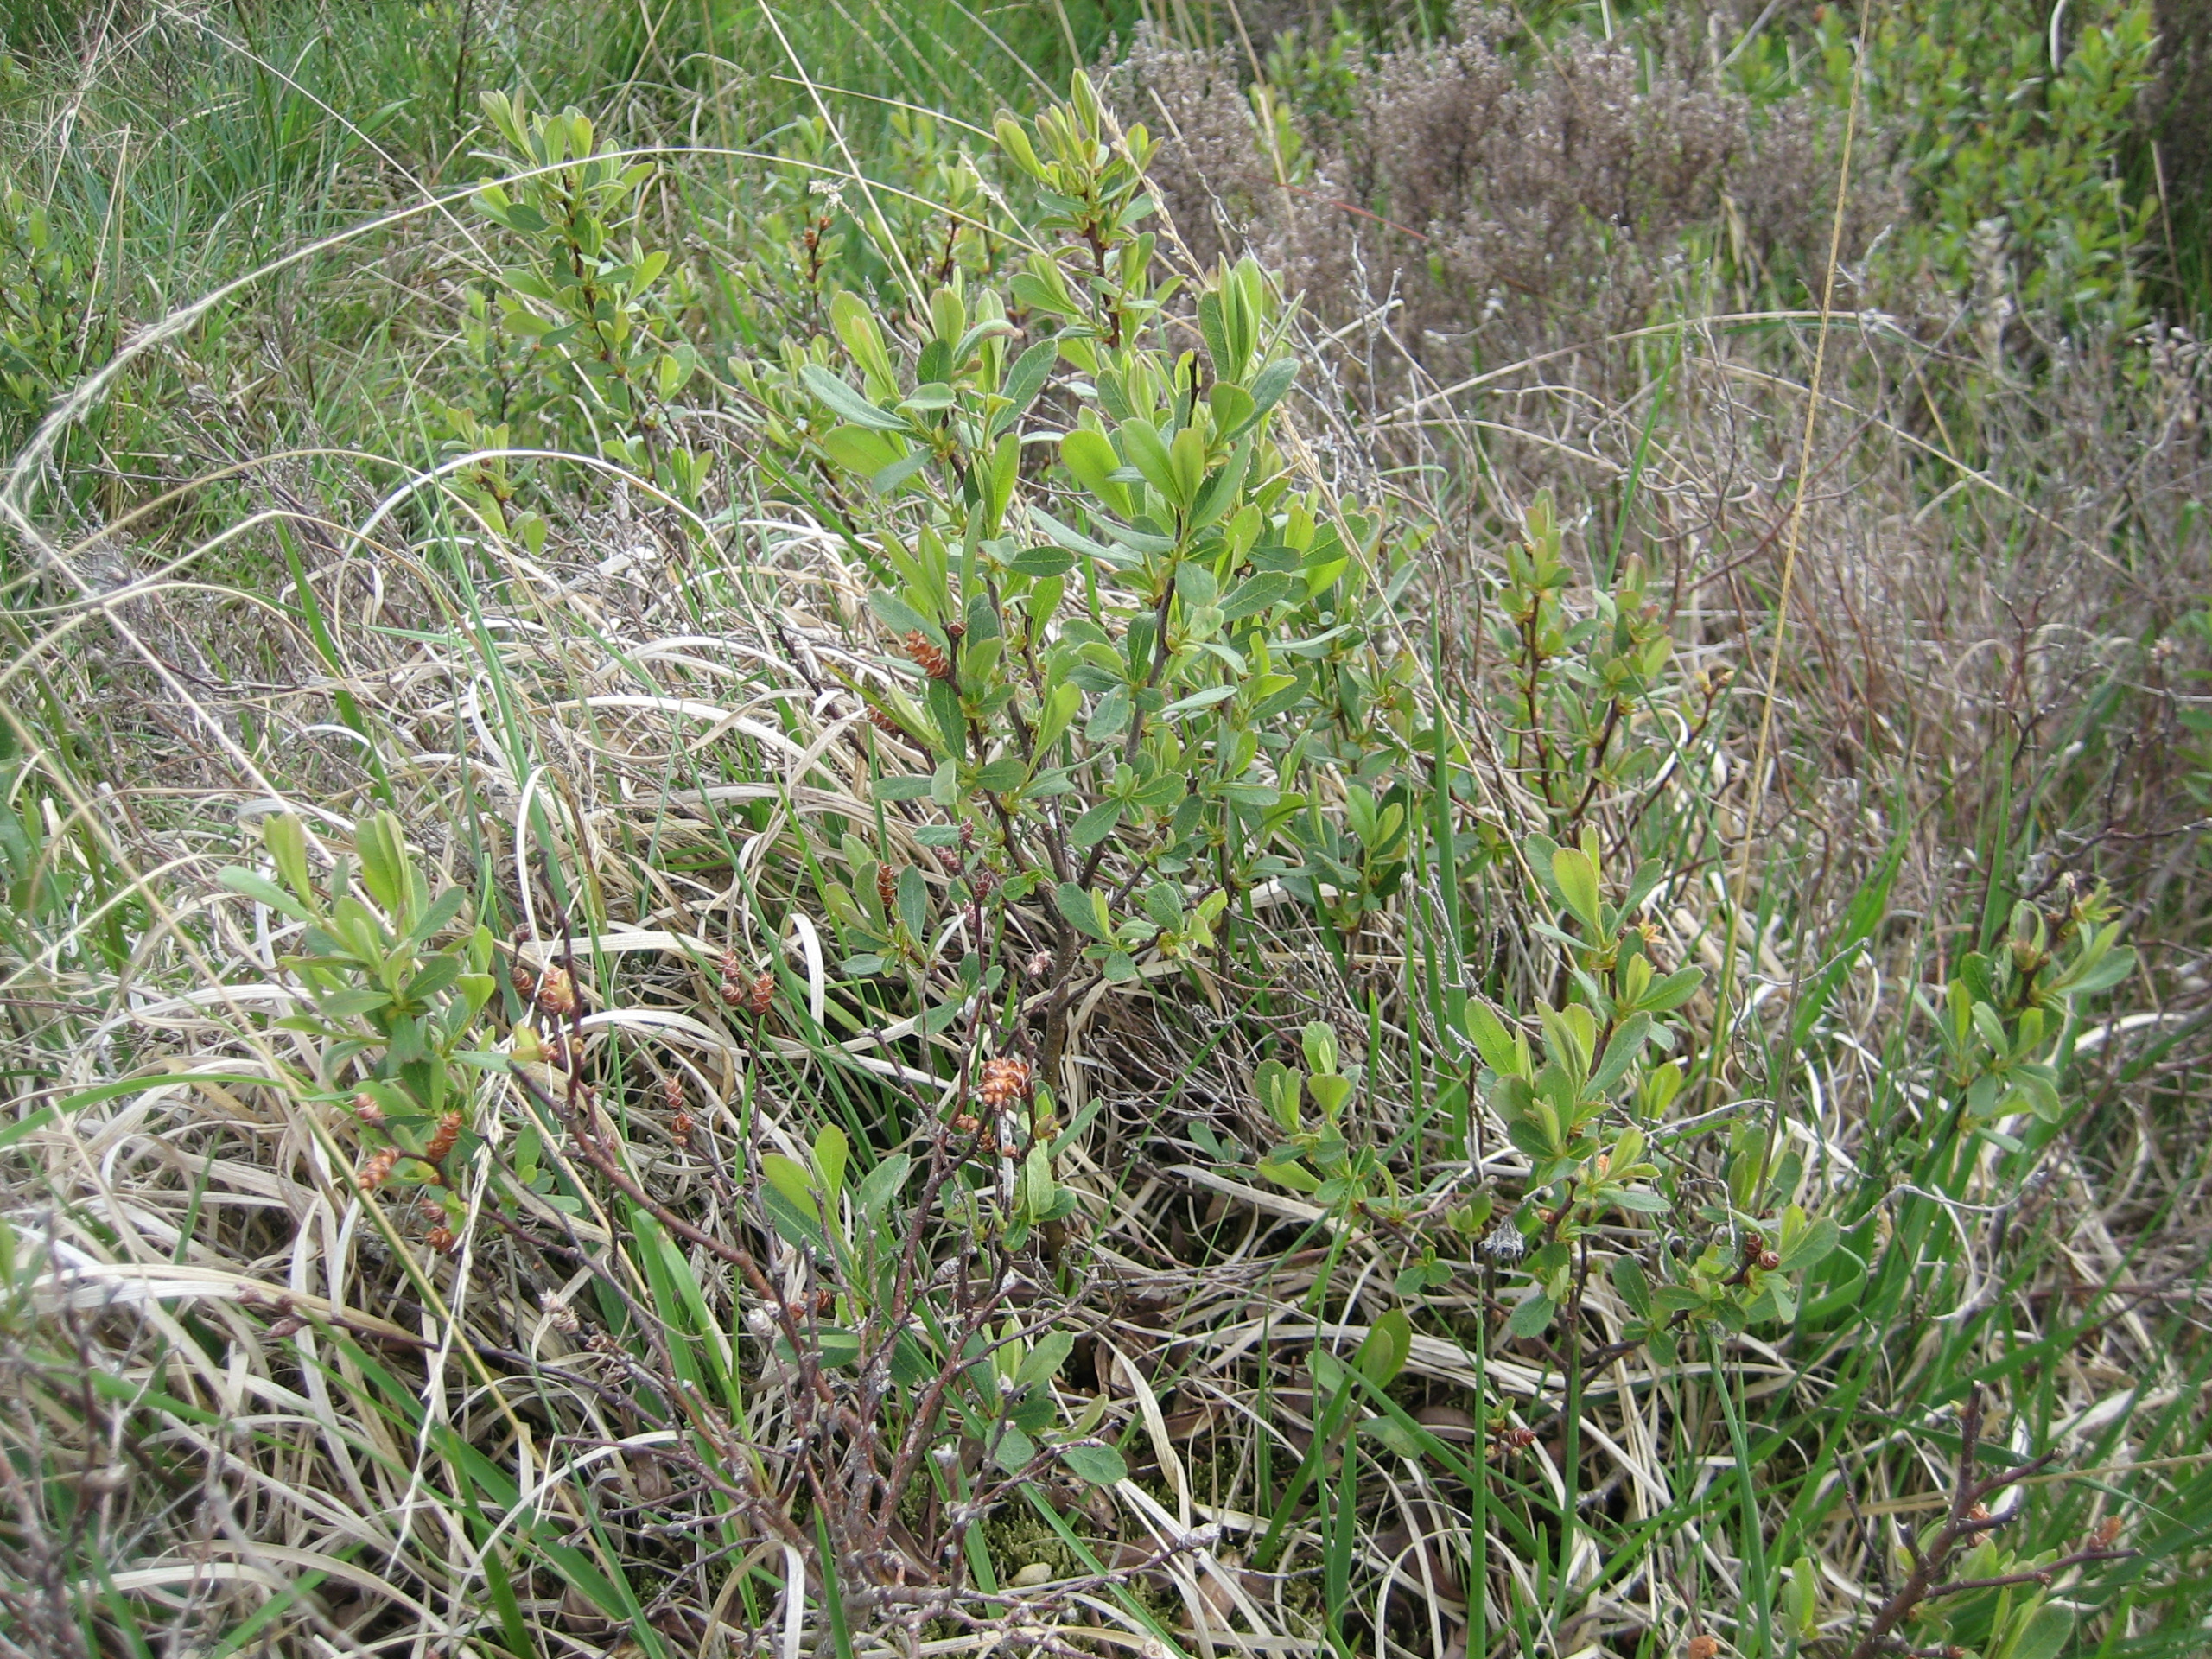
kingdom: Plantae
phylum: Tracheophyta
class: Magnoliopsida
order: Fagales
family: Myricaceae
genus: Myrica
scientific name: Myrica gale
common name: Pors
